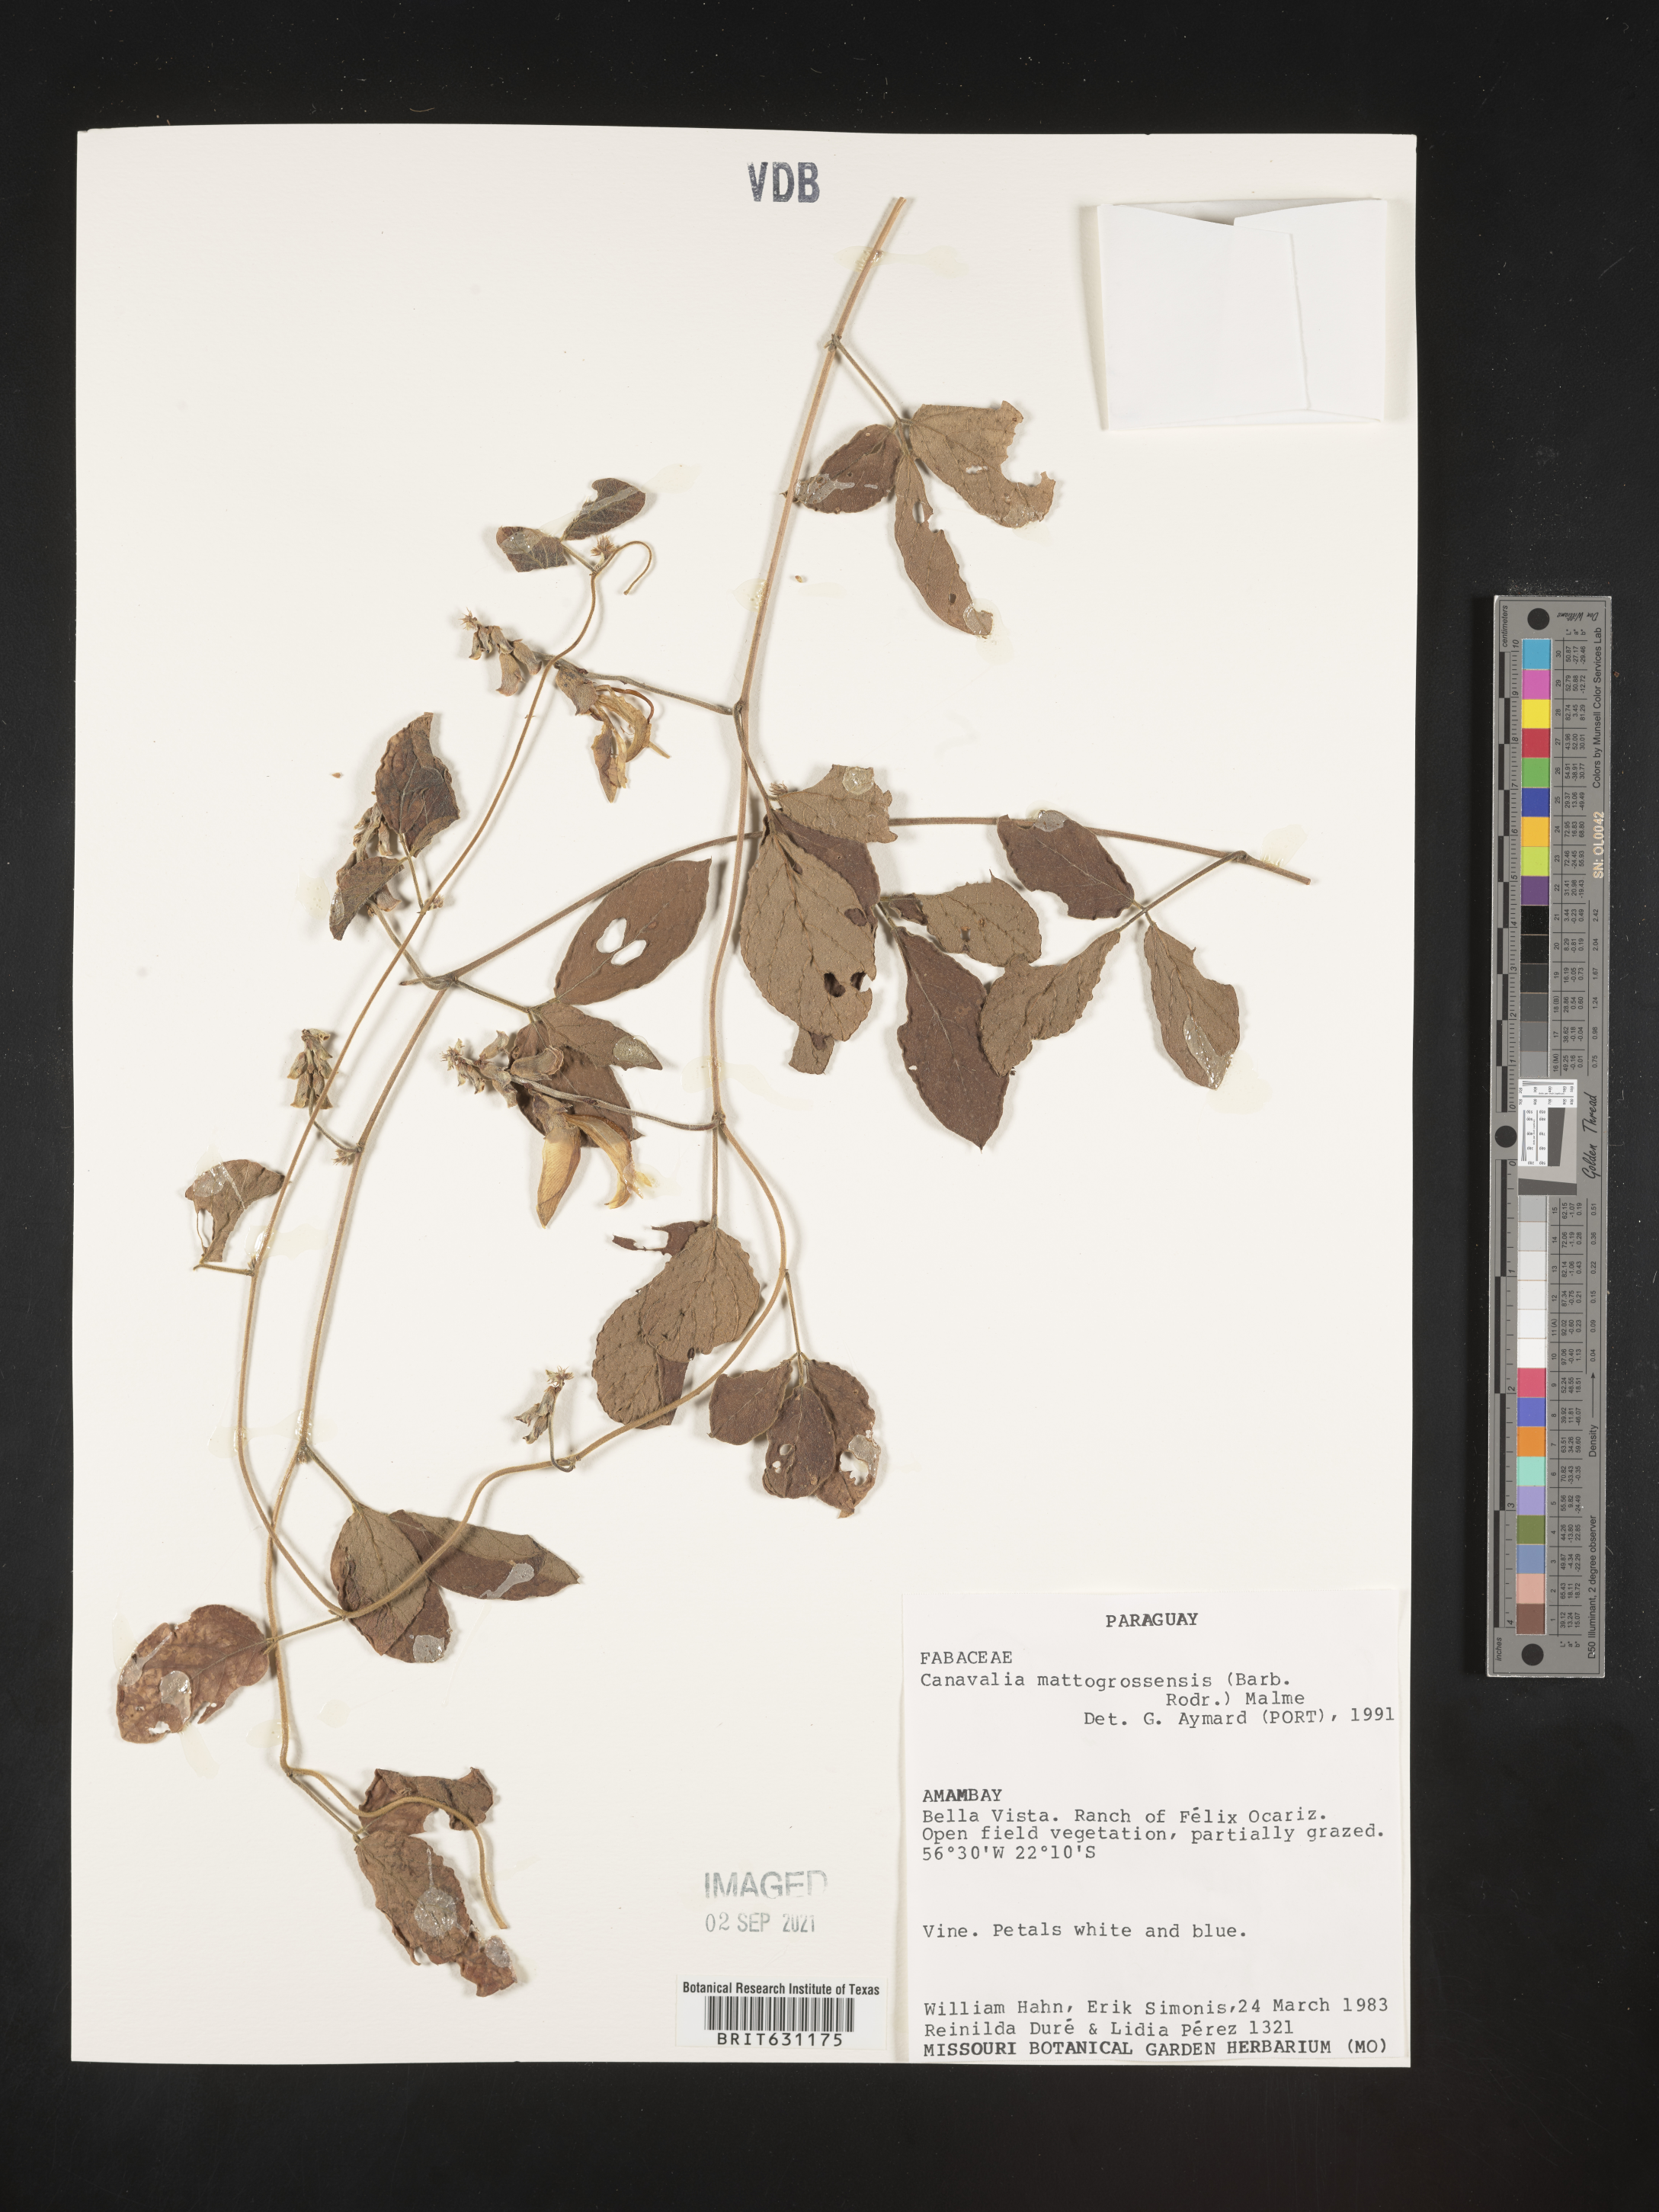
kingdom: Plantae
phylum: Tracheophyta
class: Magnoliopsida
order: Fabales
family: Fabaceae
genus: Canavalia
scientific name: Canavalia mattogrossensis
